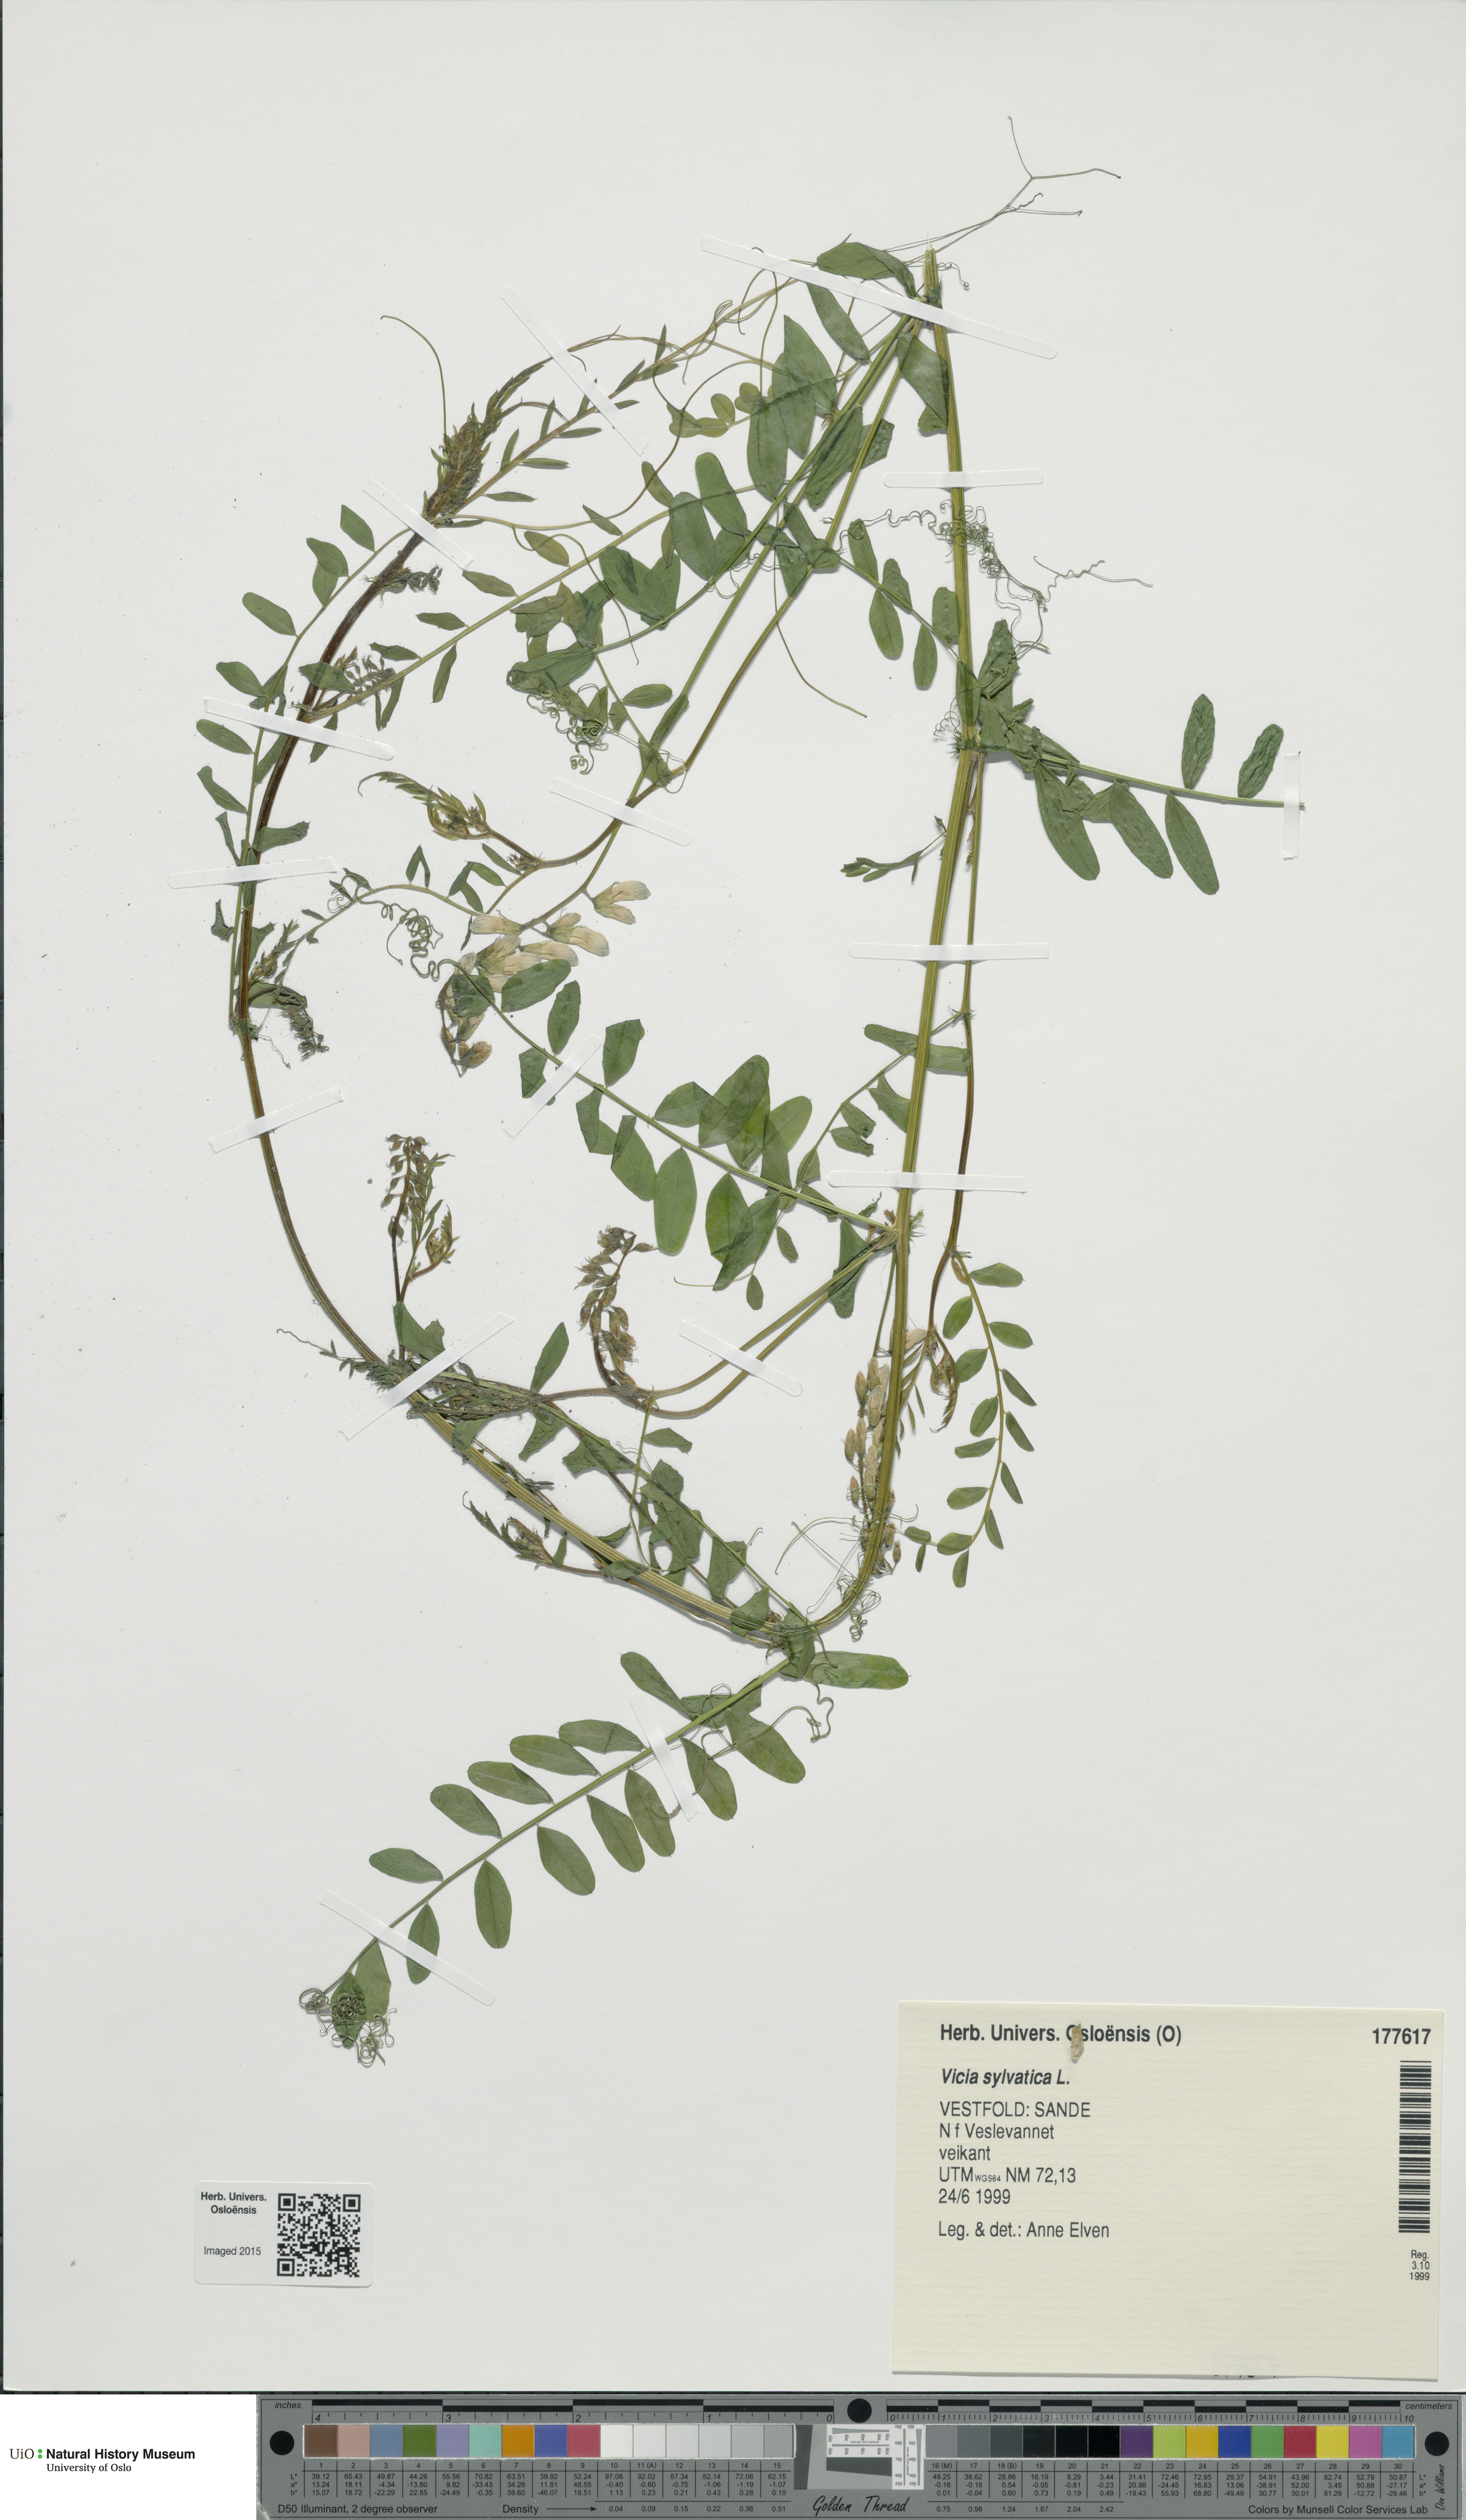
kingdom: Plantae
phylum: Tracheophyta
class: Magnoliopsida
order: Fabales
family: Fabaceae
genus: Vicia
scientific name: Vicia sylvatica
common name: Wood vetch
